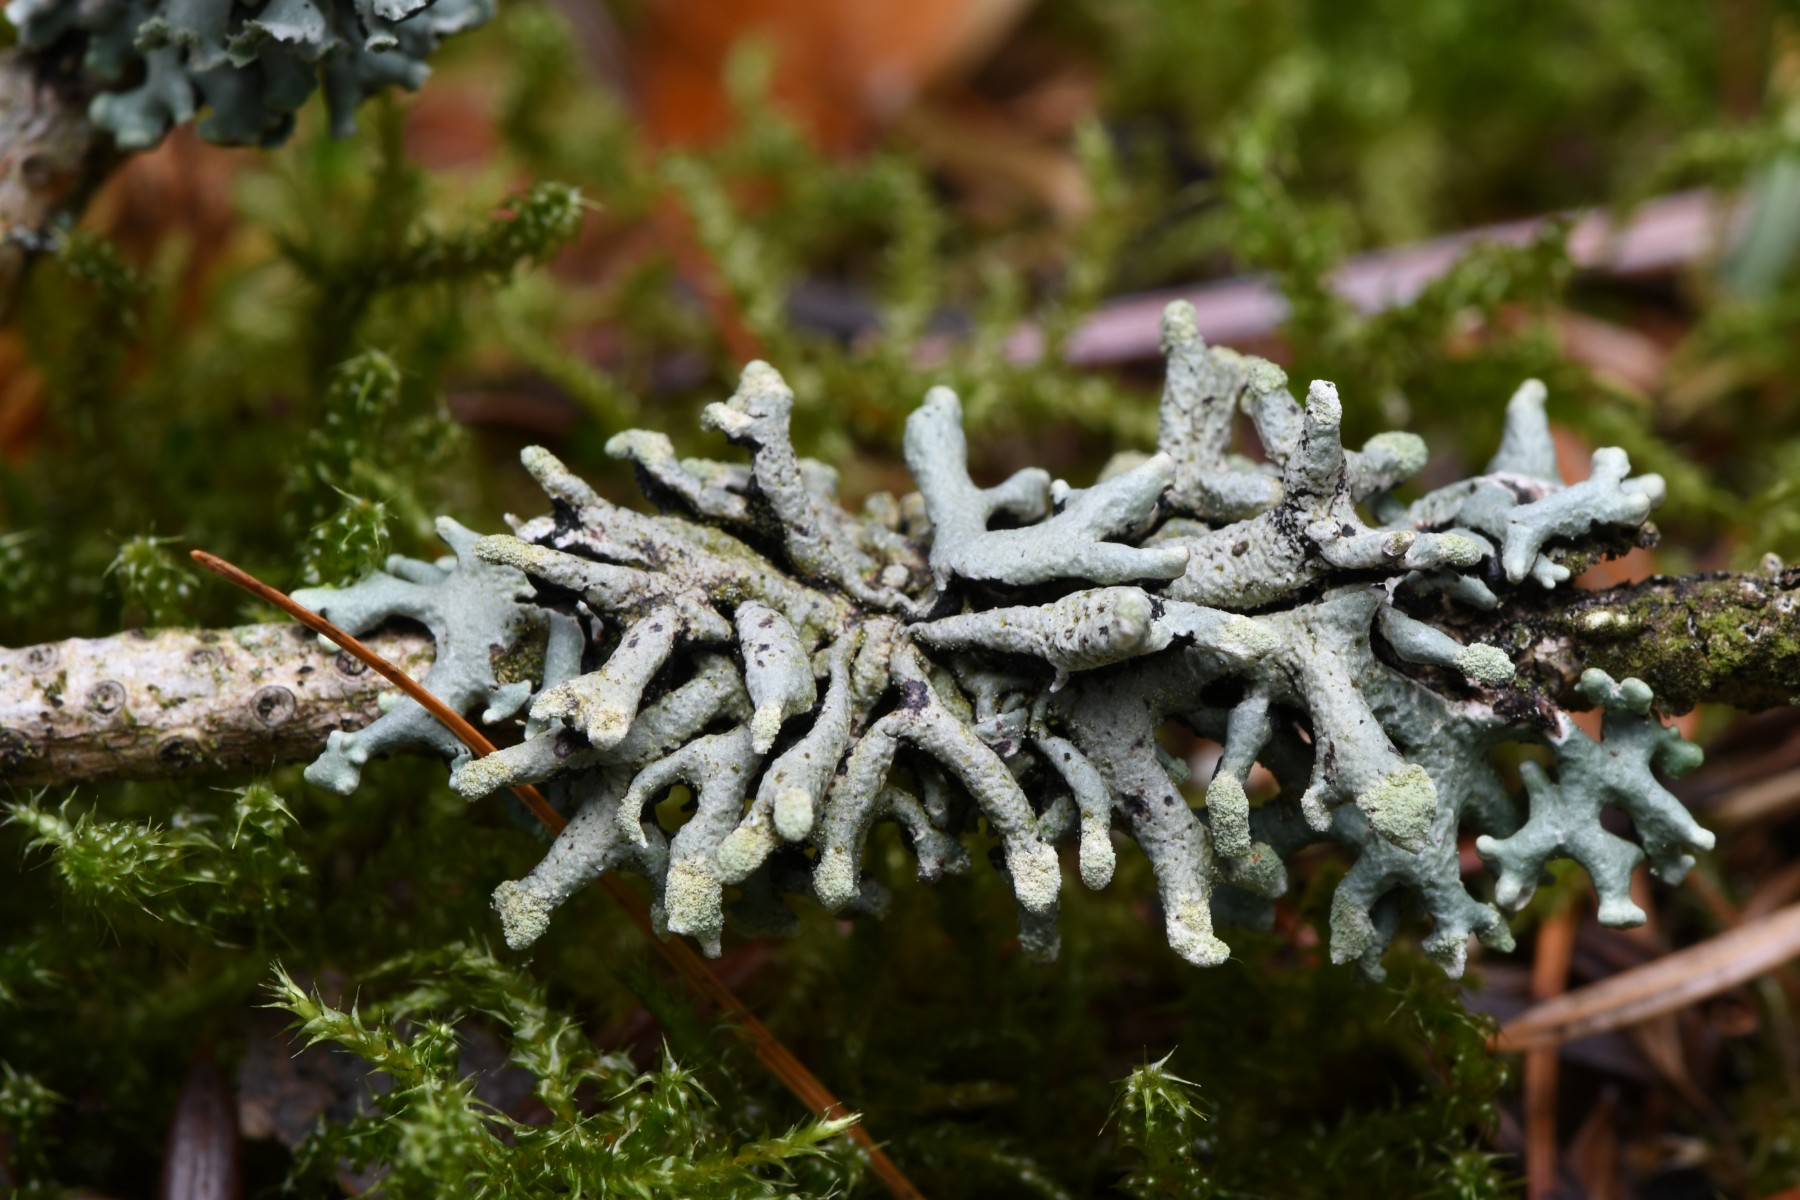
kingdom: Fungi
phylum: Ascomycota
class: Lecanoromycetes
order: Lecanorales
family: Parmeliaceae
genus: Hypogymnia
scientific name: Hypogymnia tubulosa
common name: finger-kvistlav
